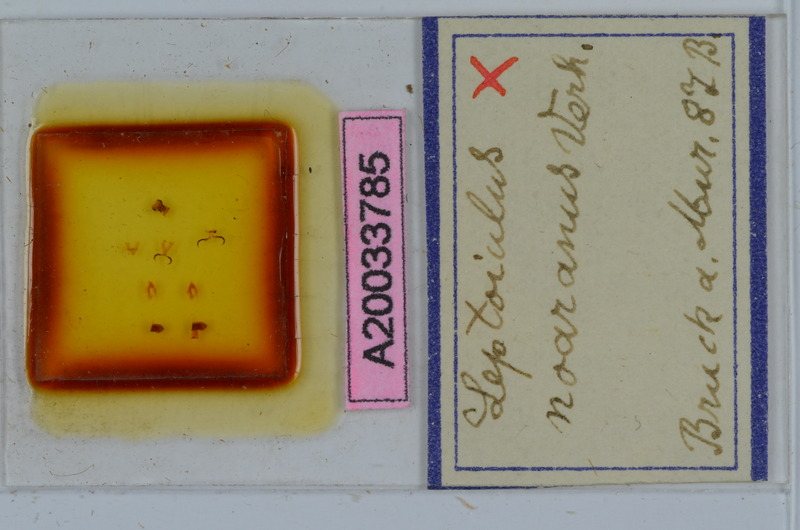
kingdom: Animalia
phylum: Arthropoda
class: Diplopoda
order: Julida
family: Julidae
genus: Leptoiulus
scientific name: Leptoiulus proximus
